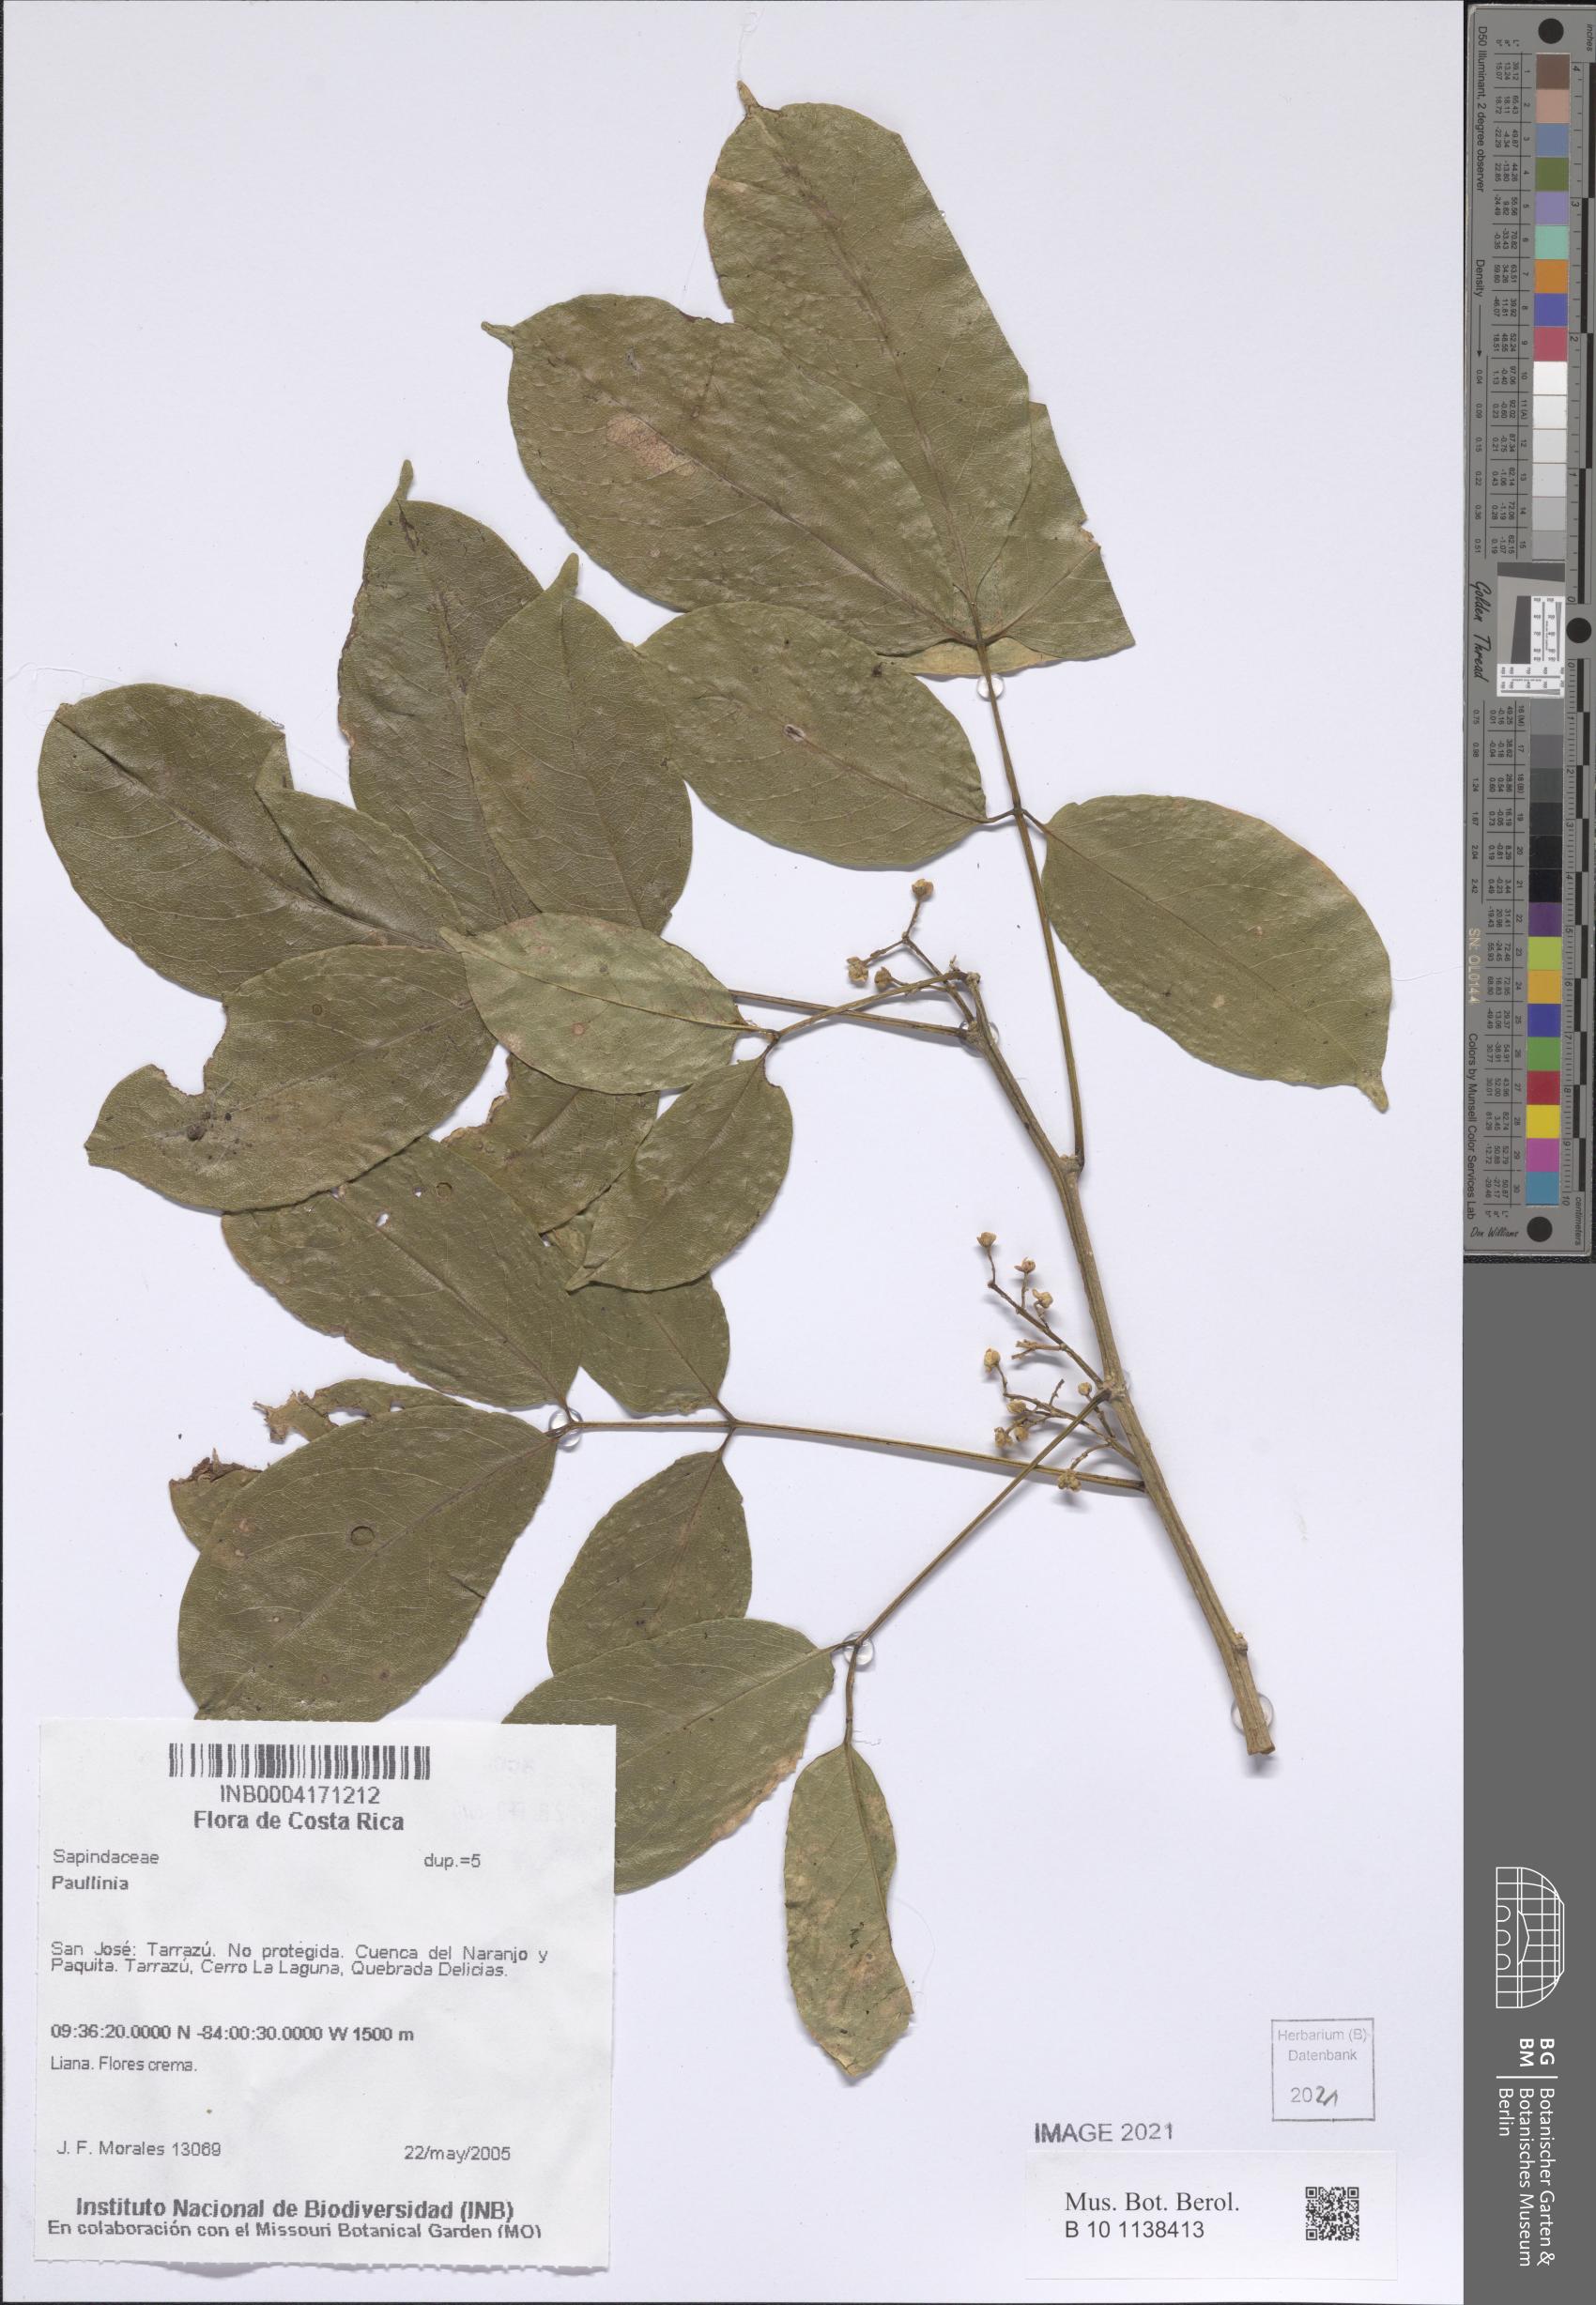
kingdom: Plantae
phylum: Tracheophyta
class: Magnoliopsida
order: Sapindales
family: Sapindaceae
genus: Paullinia
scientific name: Paullinia
